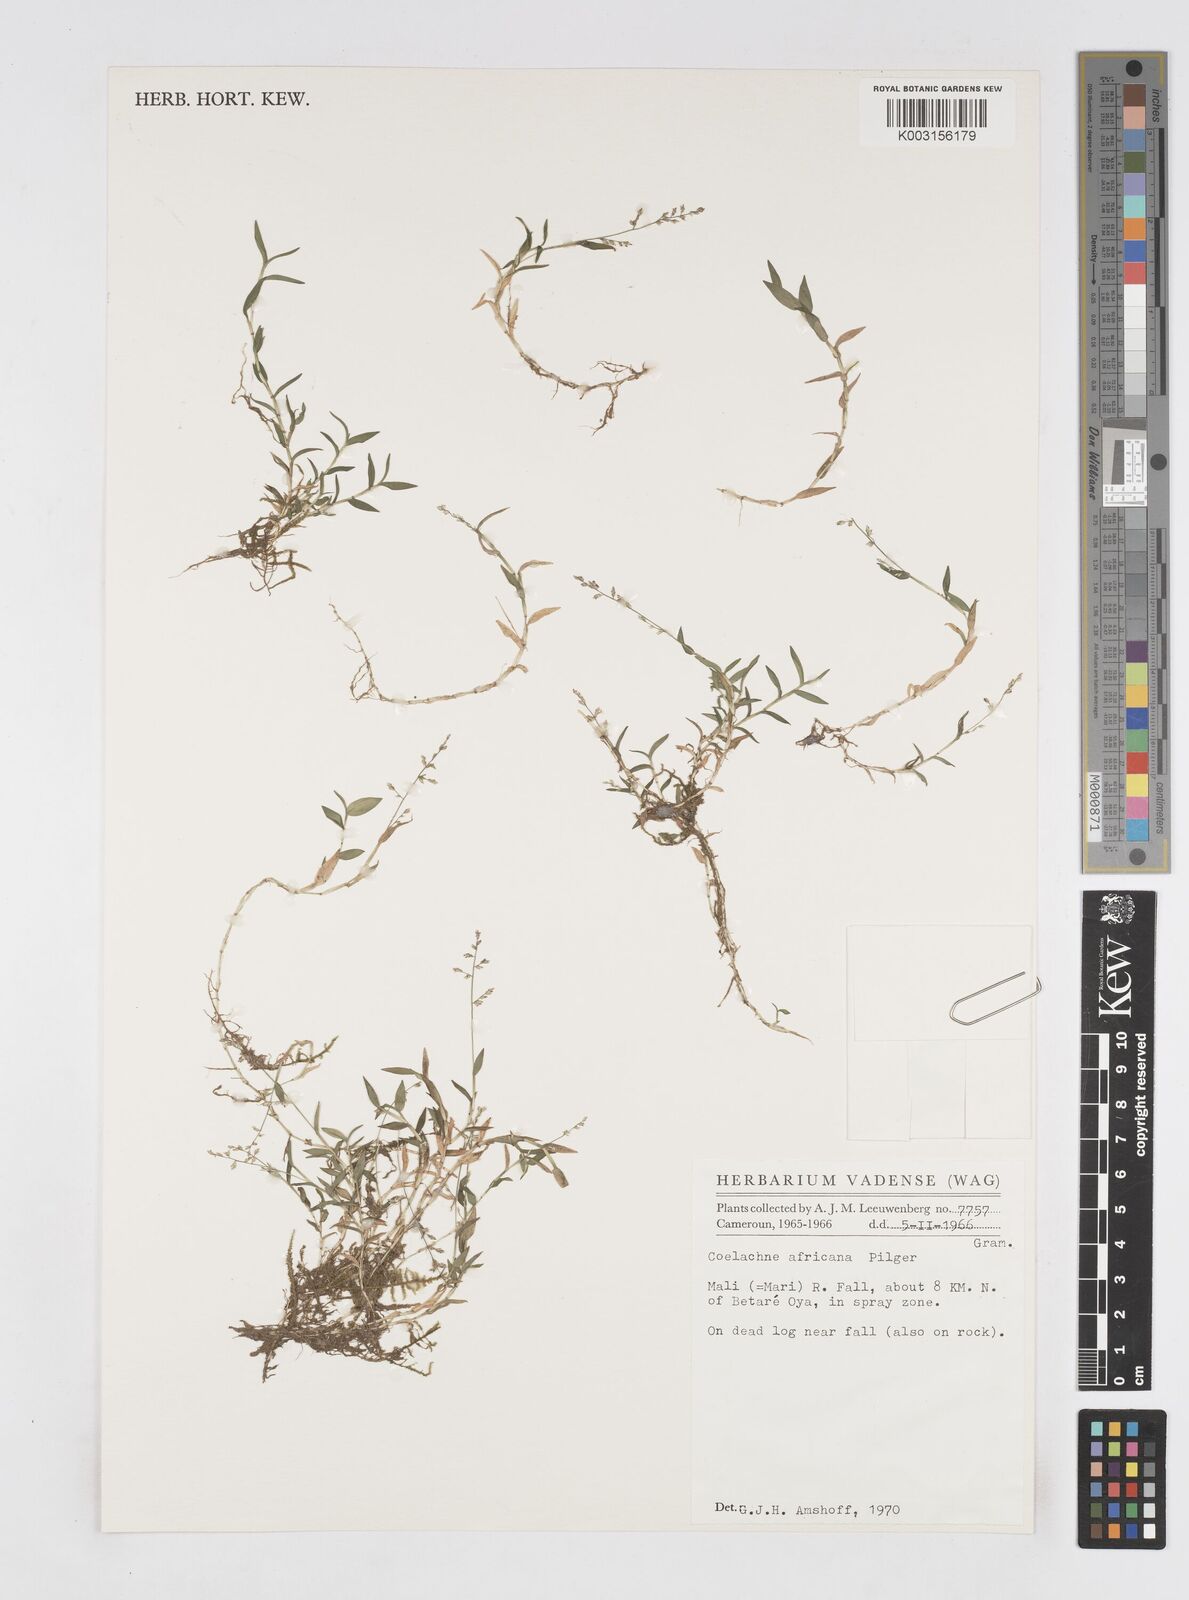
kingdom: Plantae
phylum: Tracheophyta
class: Liliopsida
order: Poales
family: Poaceae
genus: Coelachne
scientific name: Coelachne africana
